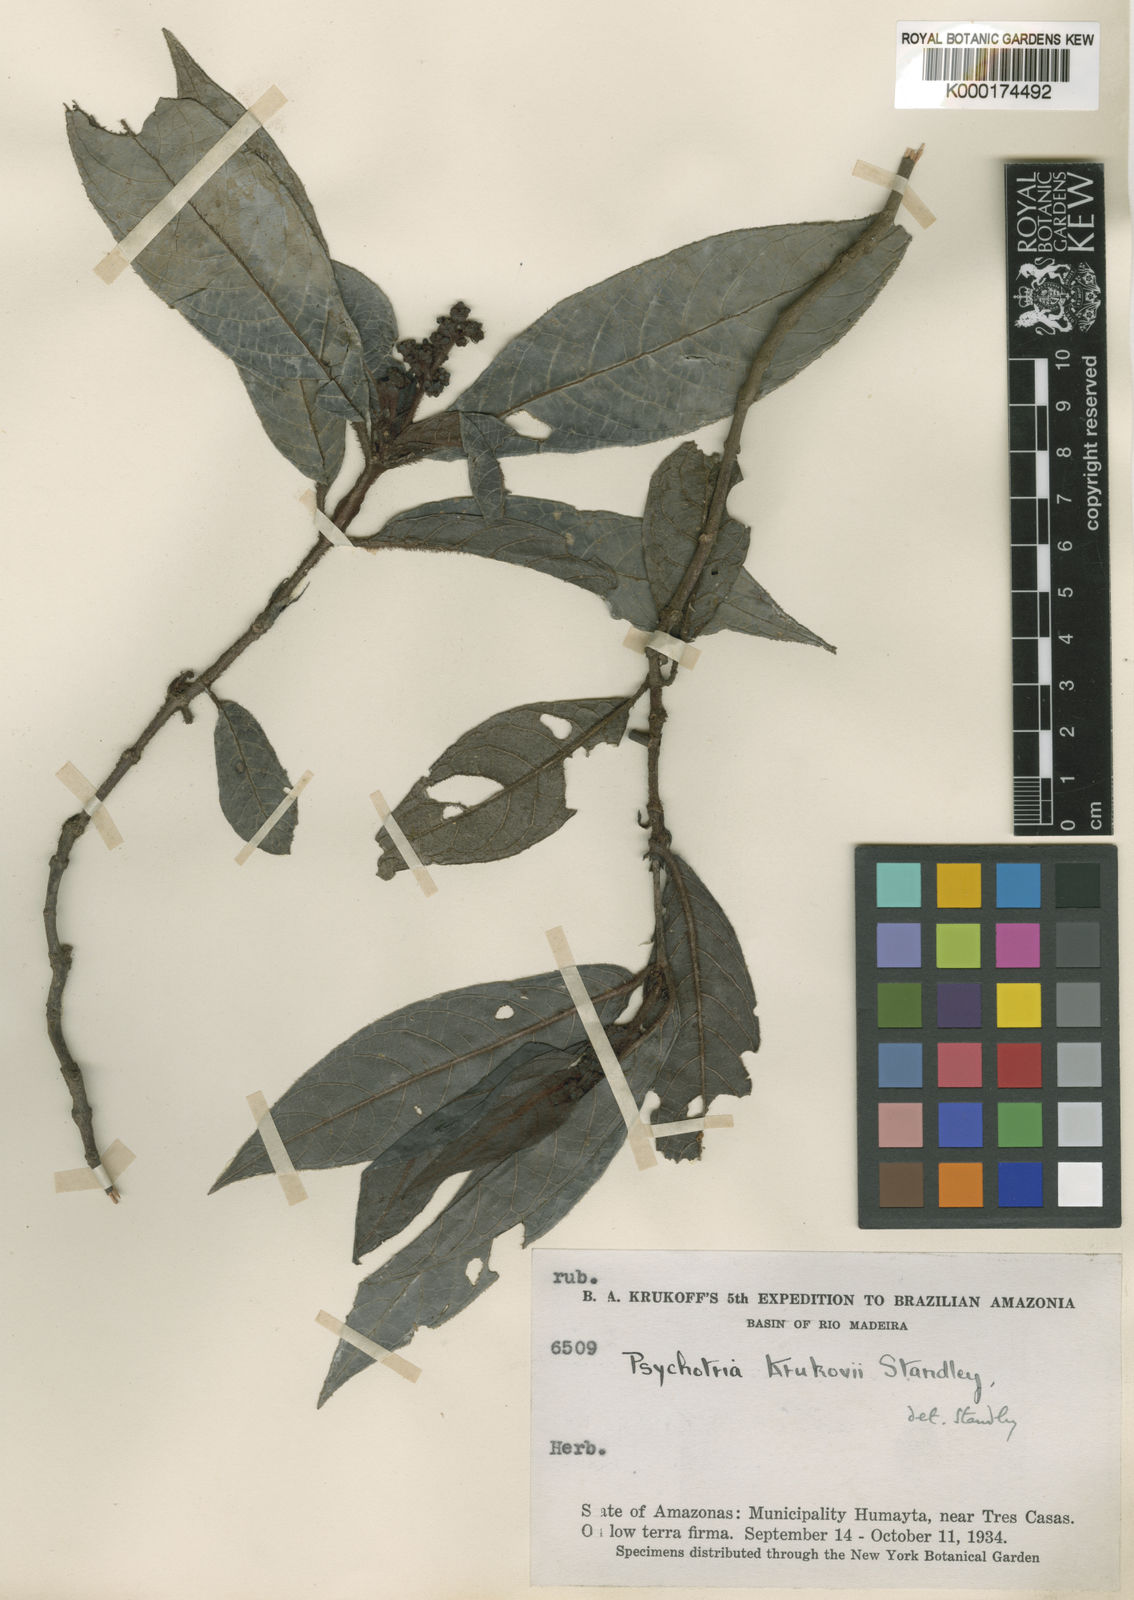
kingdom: Plantae
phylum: Tracheophyta
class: Magnoliopsida
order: Gentianales
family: Rubiaceae
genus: Psychotria
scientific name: Psychotria krukovii
